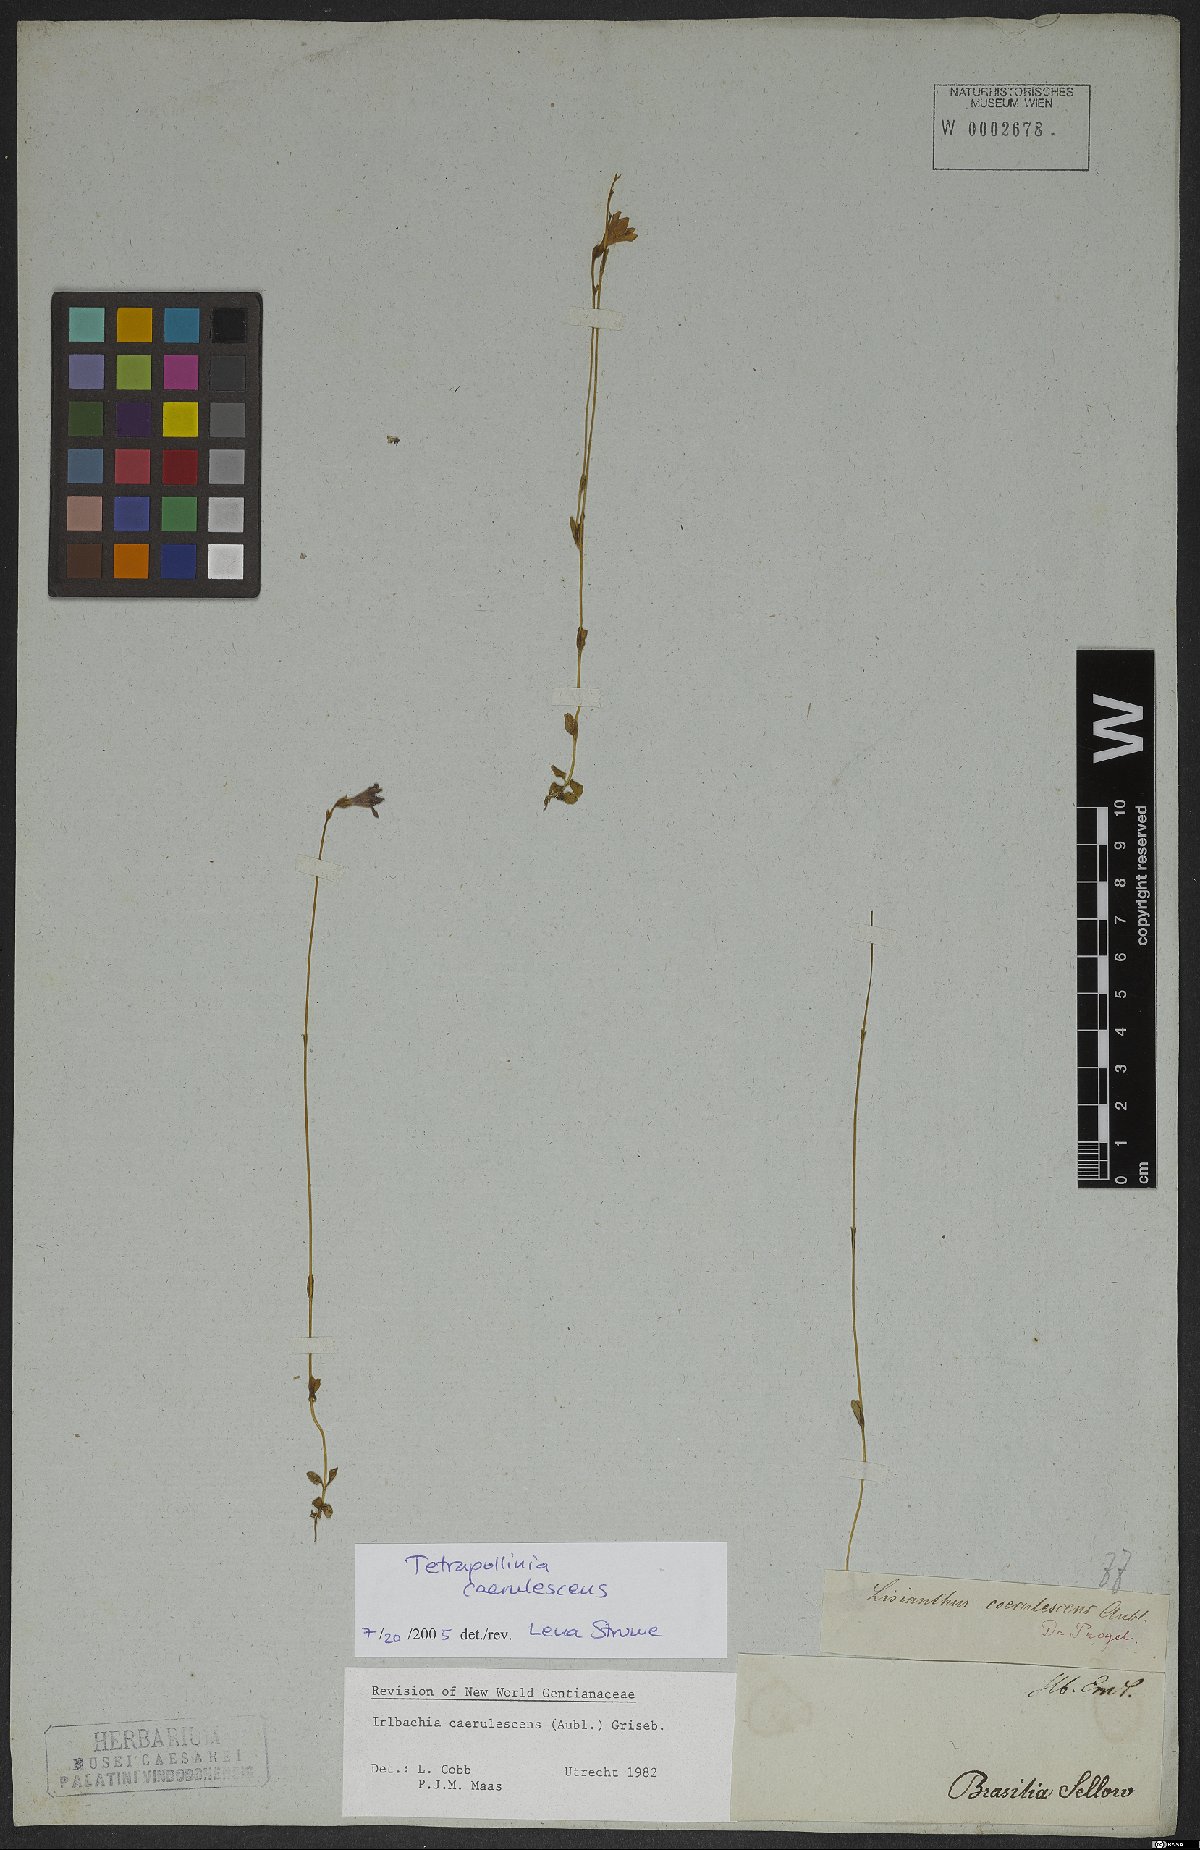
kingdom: Plantae
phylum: Tracheophyta
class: Magnoliopsida
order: Gentianales
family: Gentianaceae
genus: Tetrapollinia
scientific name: Tetrapollinia caerulescens
